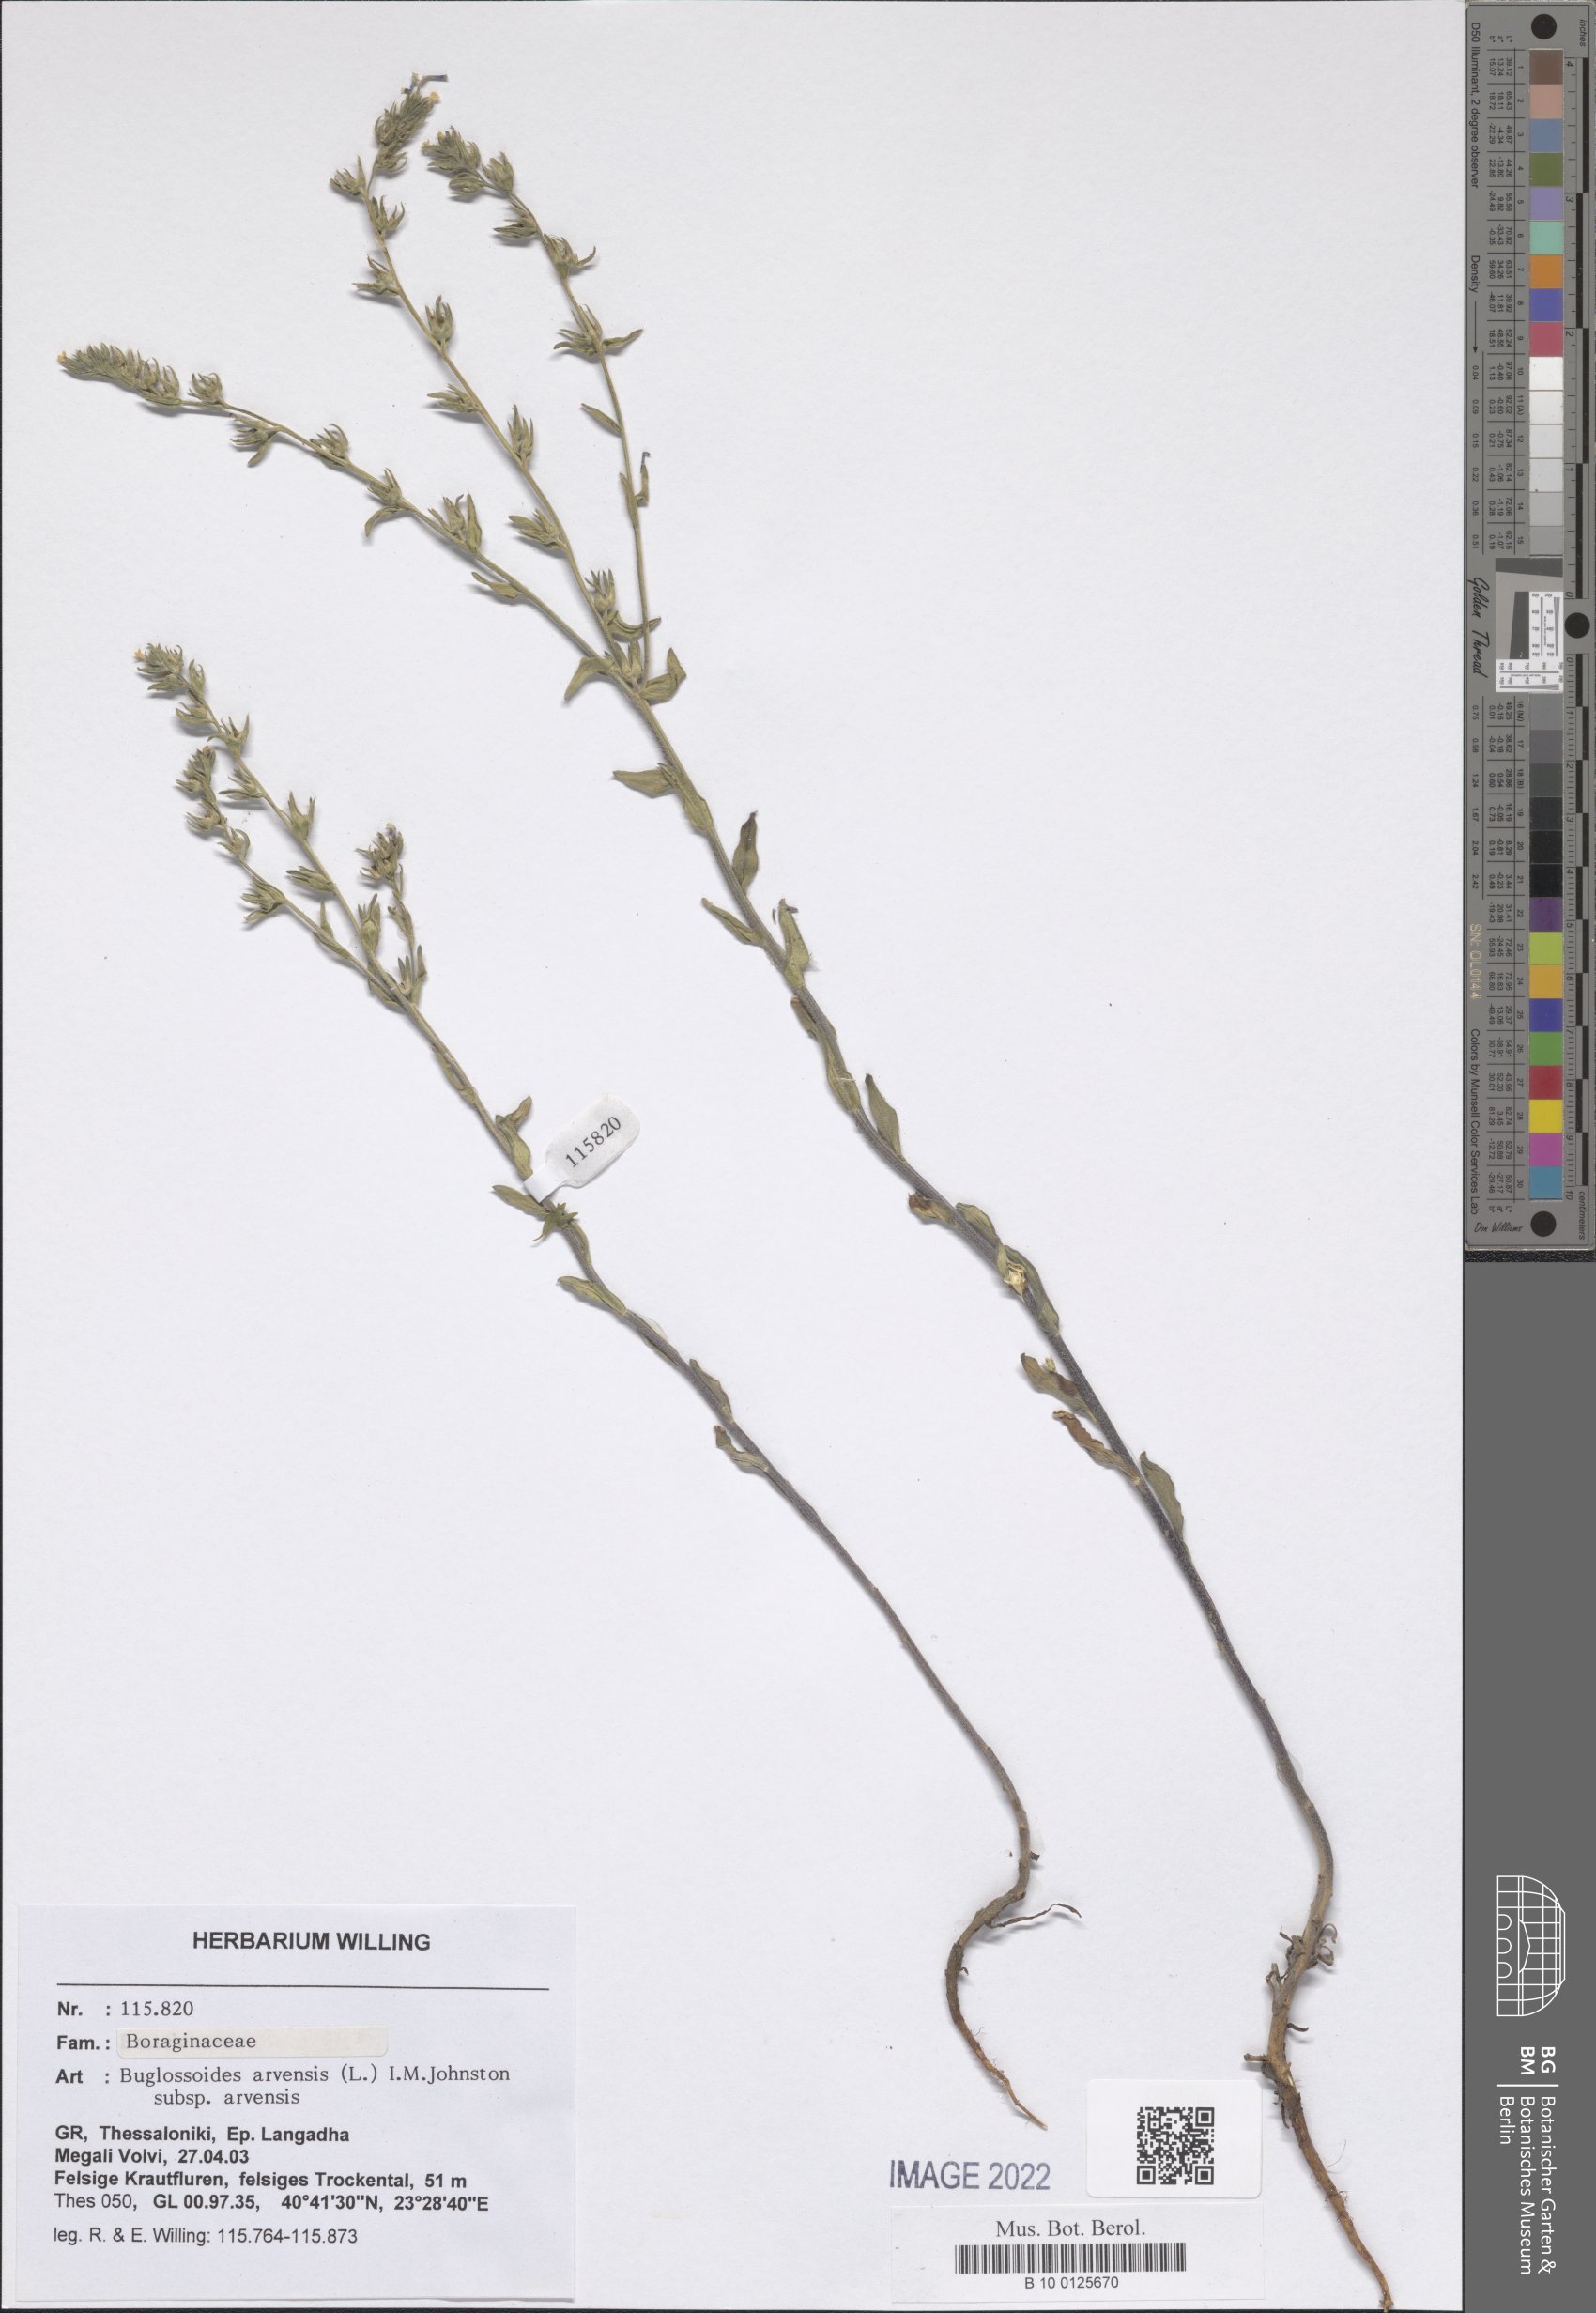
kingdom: Plantae
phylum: Tracheophyta
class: Magnoliopsida
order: Boraginales
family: Boraginaceae
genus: Buglossoides
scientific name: Buglossoides arvensis
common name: Corn gromwell
